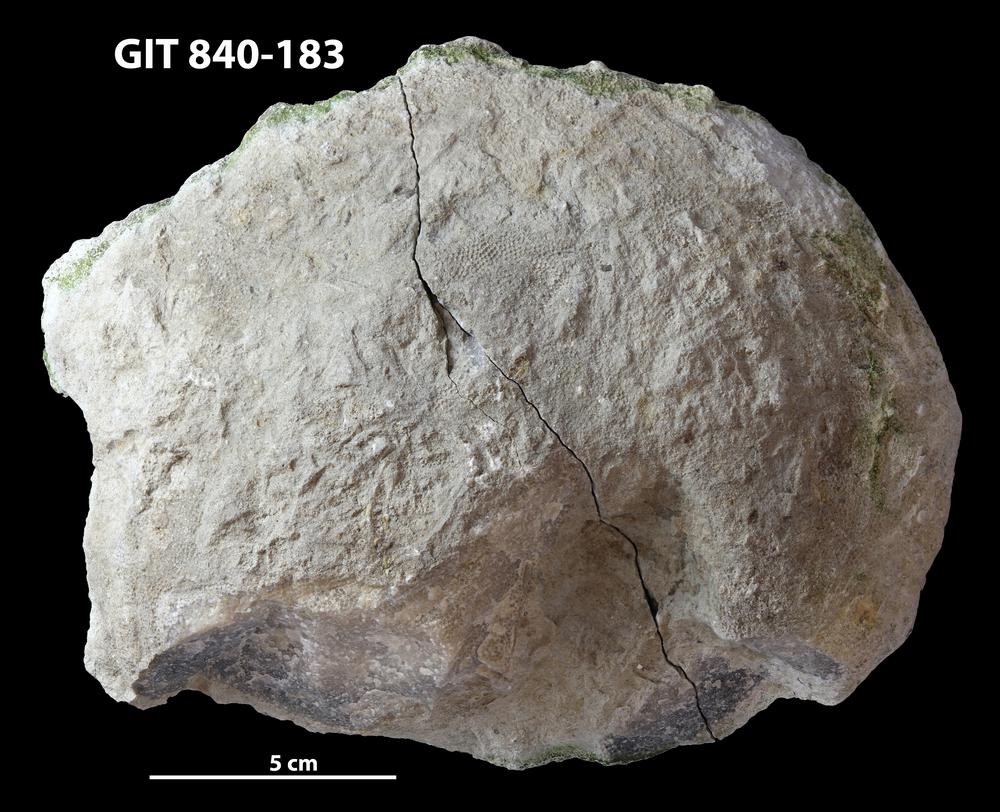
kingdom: Animalia
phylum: Cnidaria
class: Anthozoa
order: Heliolitina
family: Proheliolitidae
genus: Protoheliolites
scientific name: Protoheliolites
